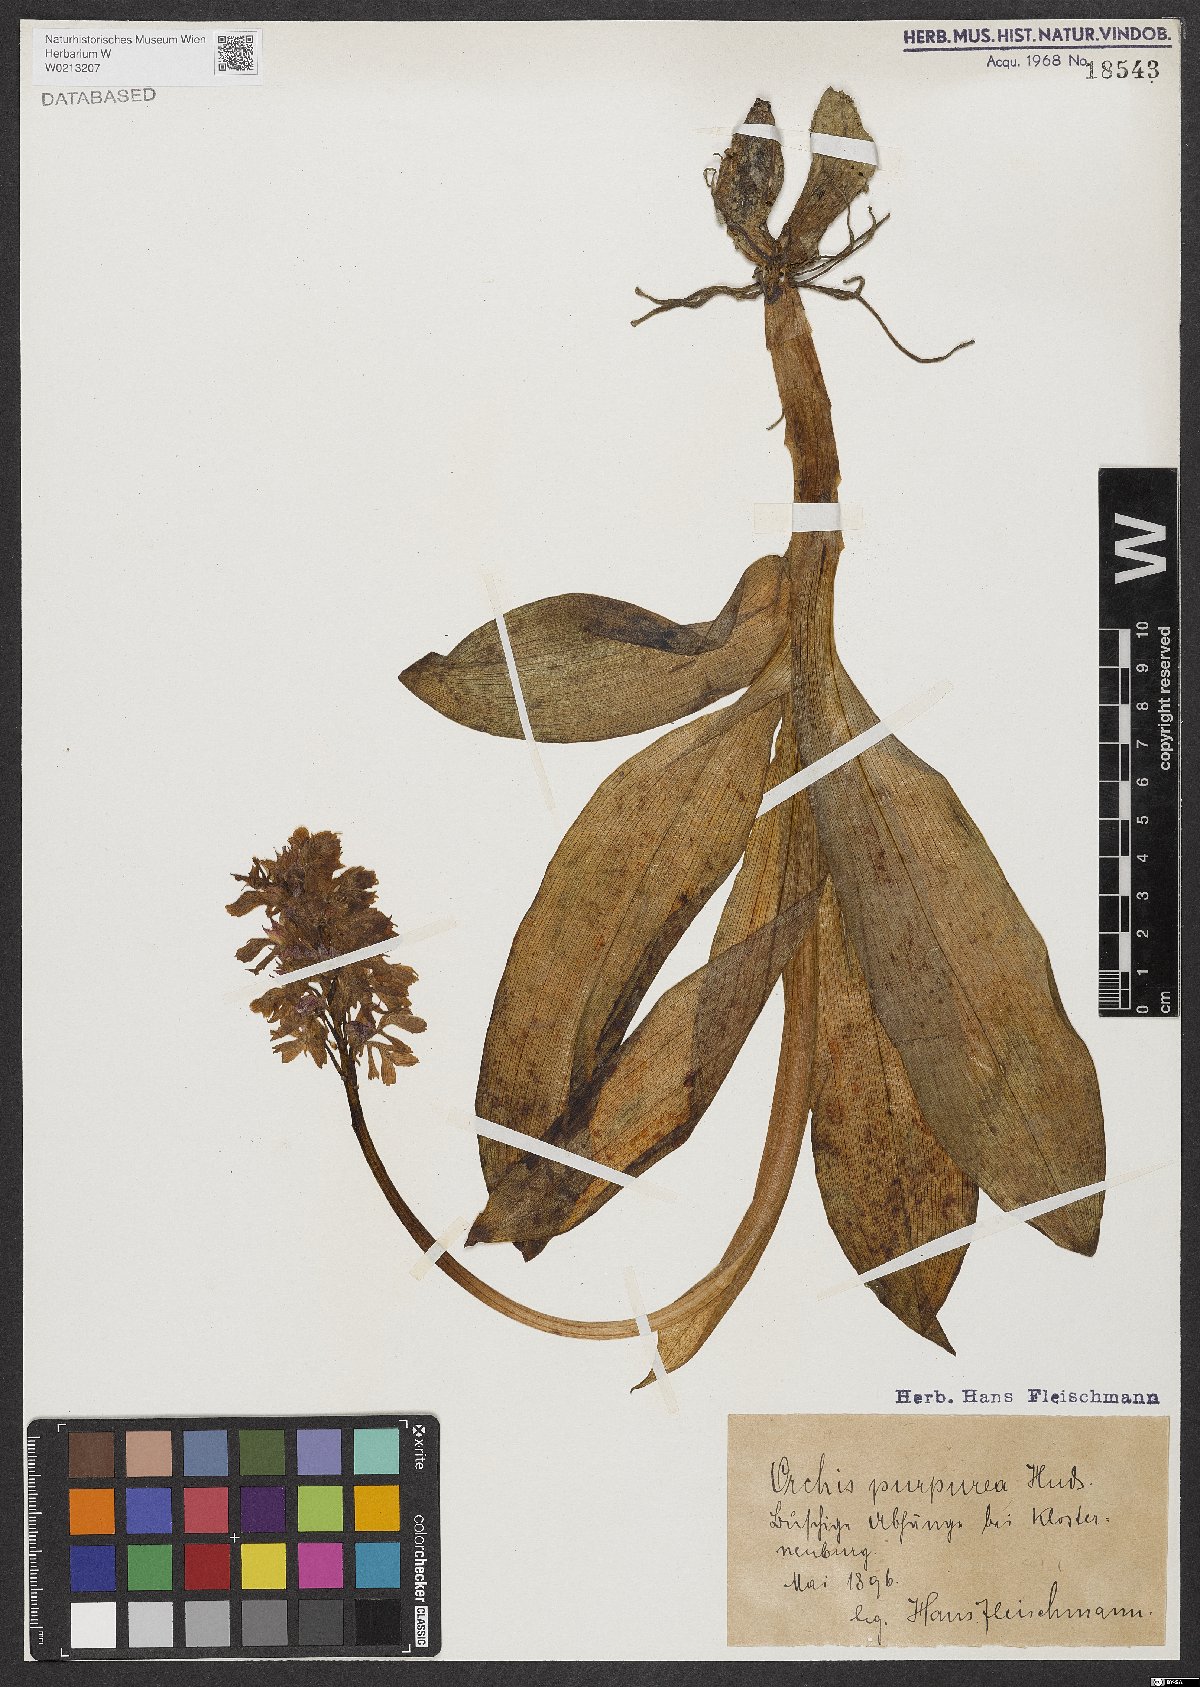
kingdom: Plantae
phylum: Tracheophyta
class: Liliopsida
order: Asparagales
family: Orchidaceae
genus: Orchis
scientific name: Orchis purpurea
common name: Lady orchid
